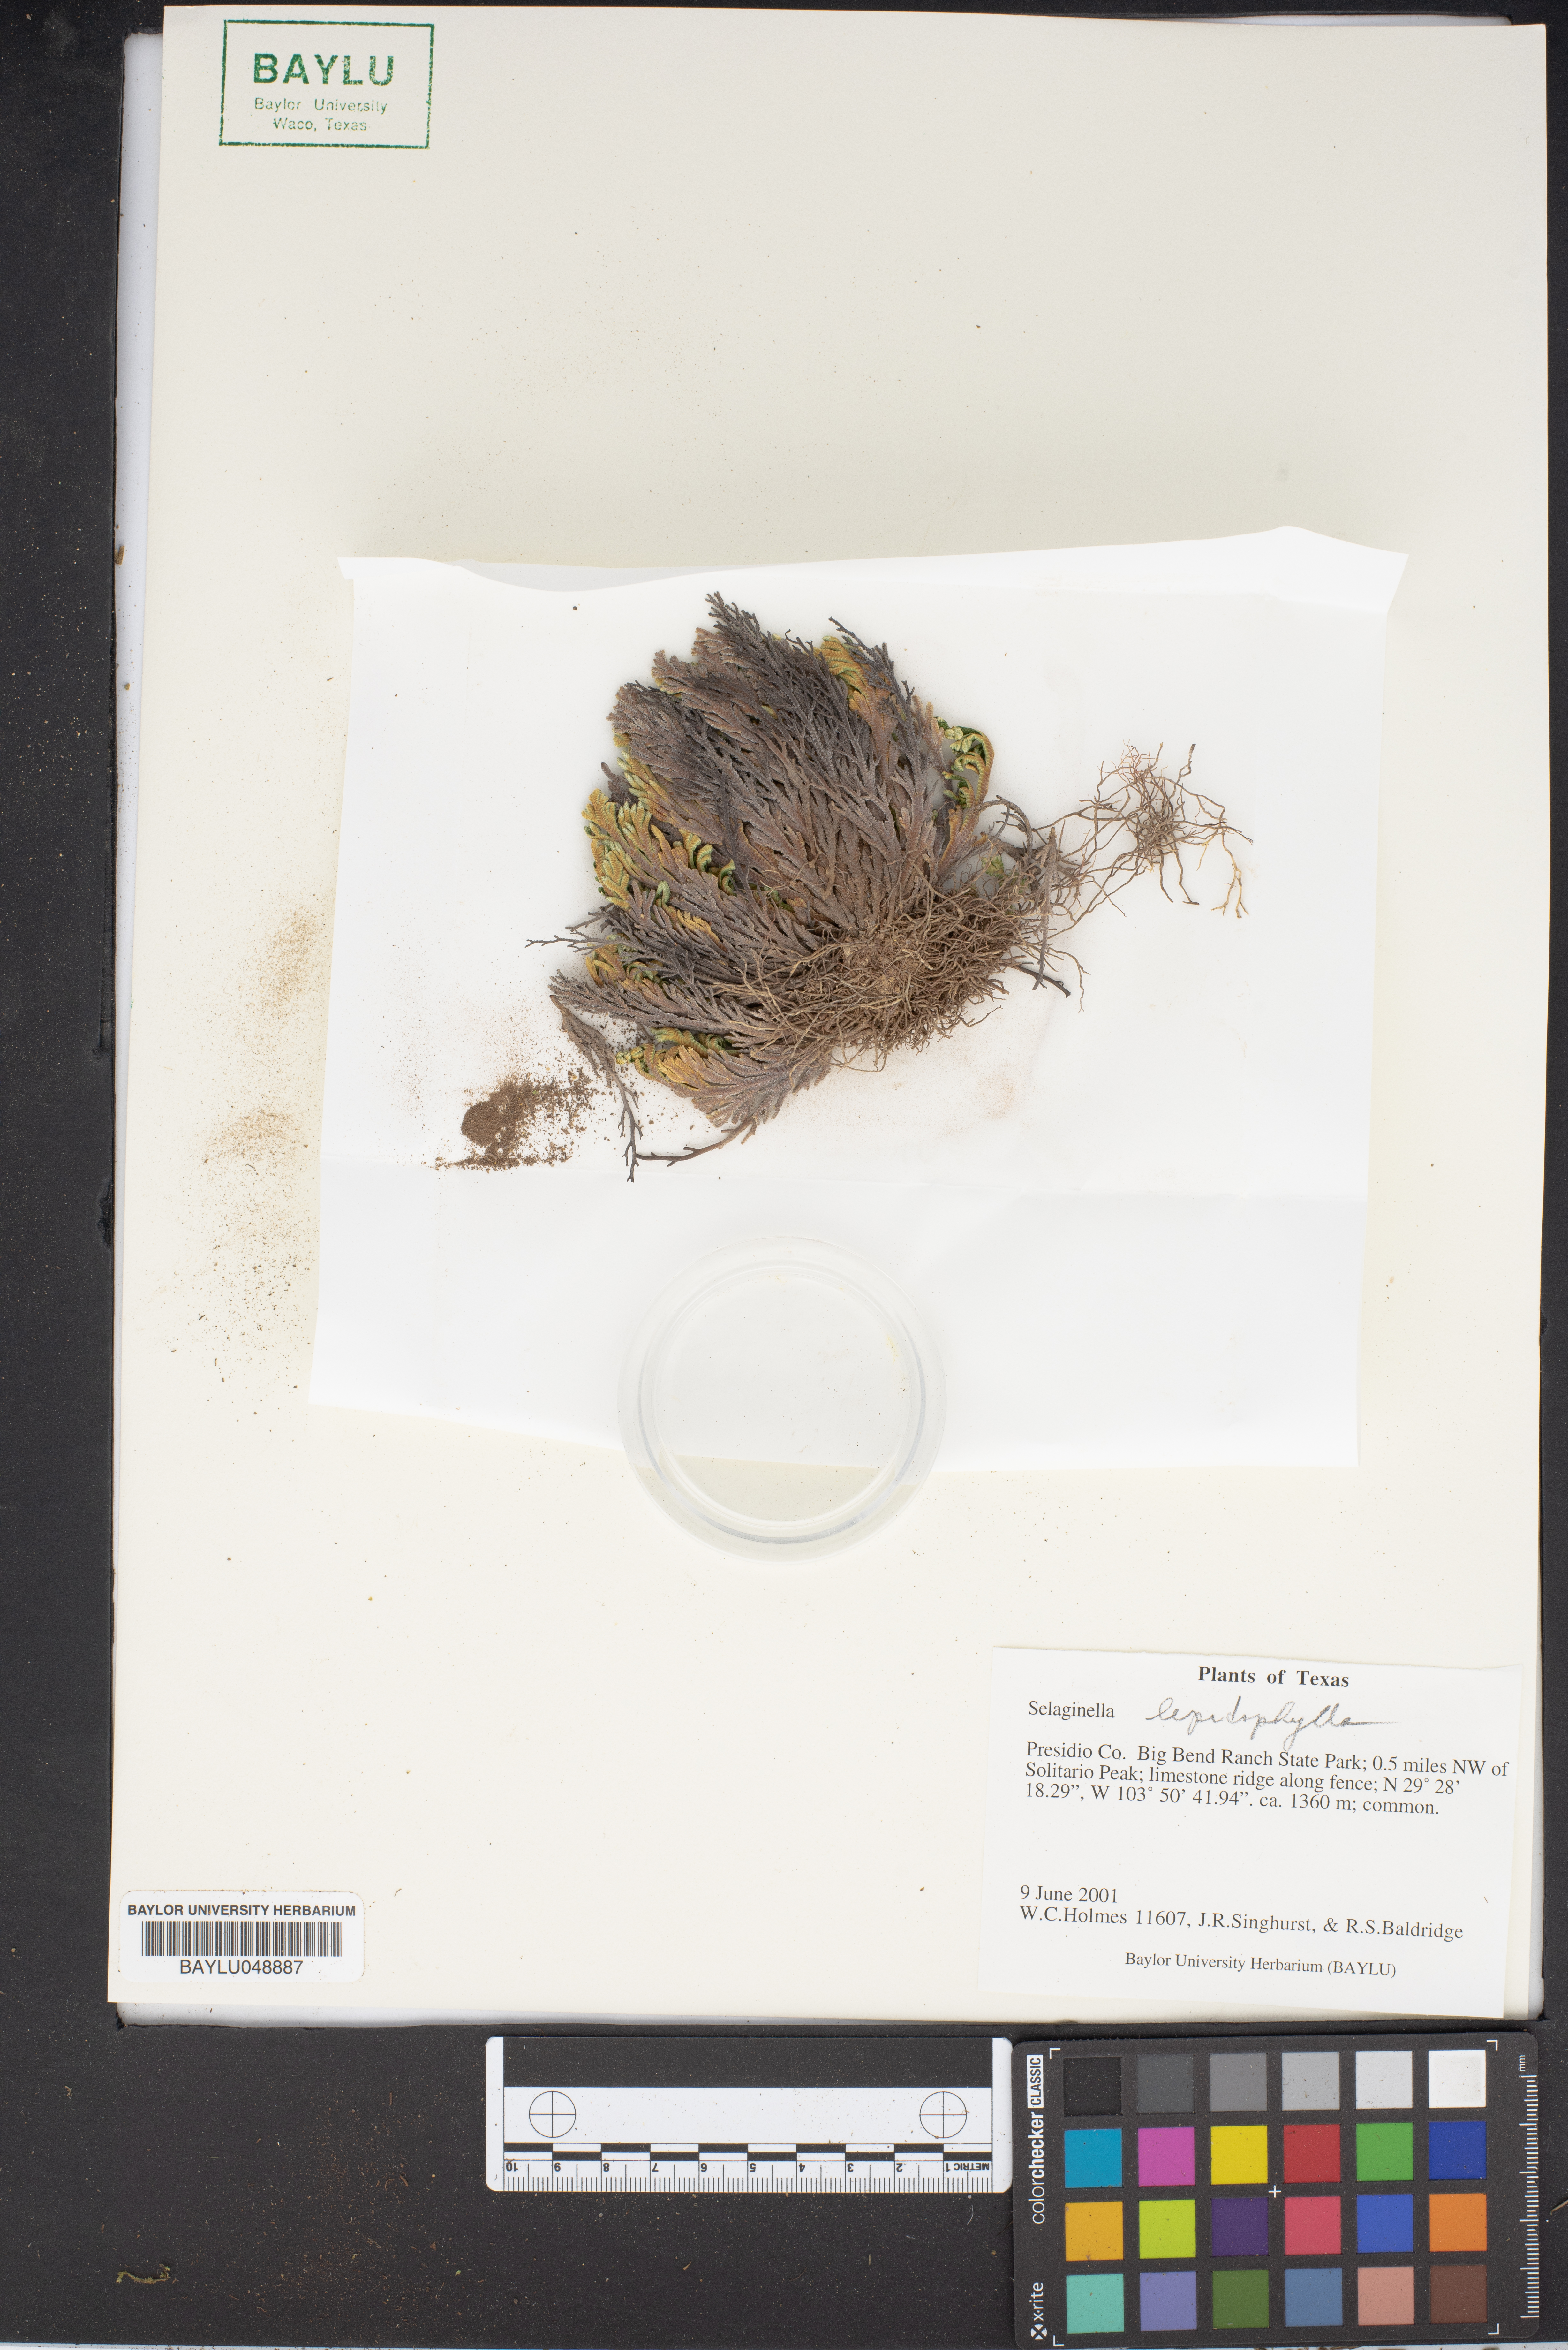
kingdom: Plantae
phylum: Tracheophyta
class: Lycopodiopsida
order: Selaginellales
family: Selaginellaceae
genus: Selaginella
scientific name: Selaginella lepidophylla
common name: Rose-of-jericho
